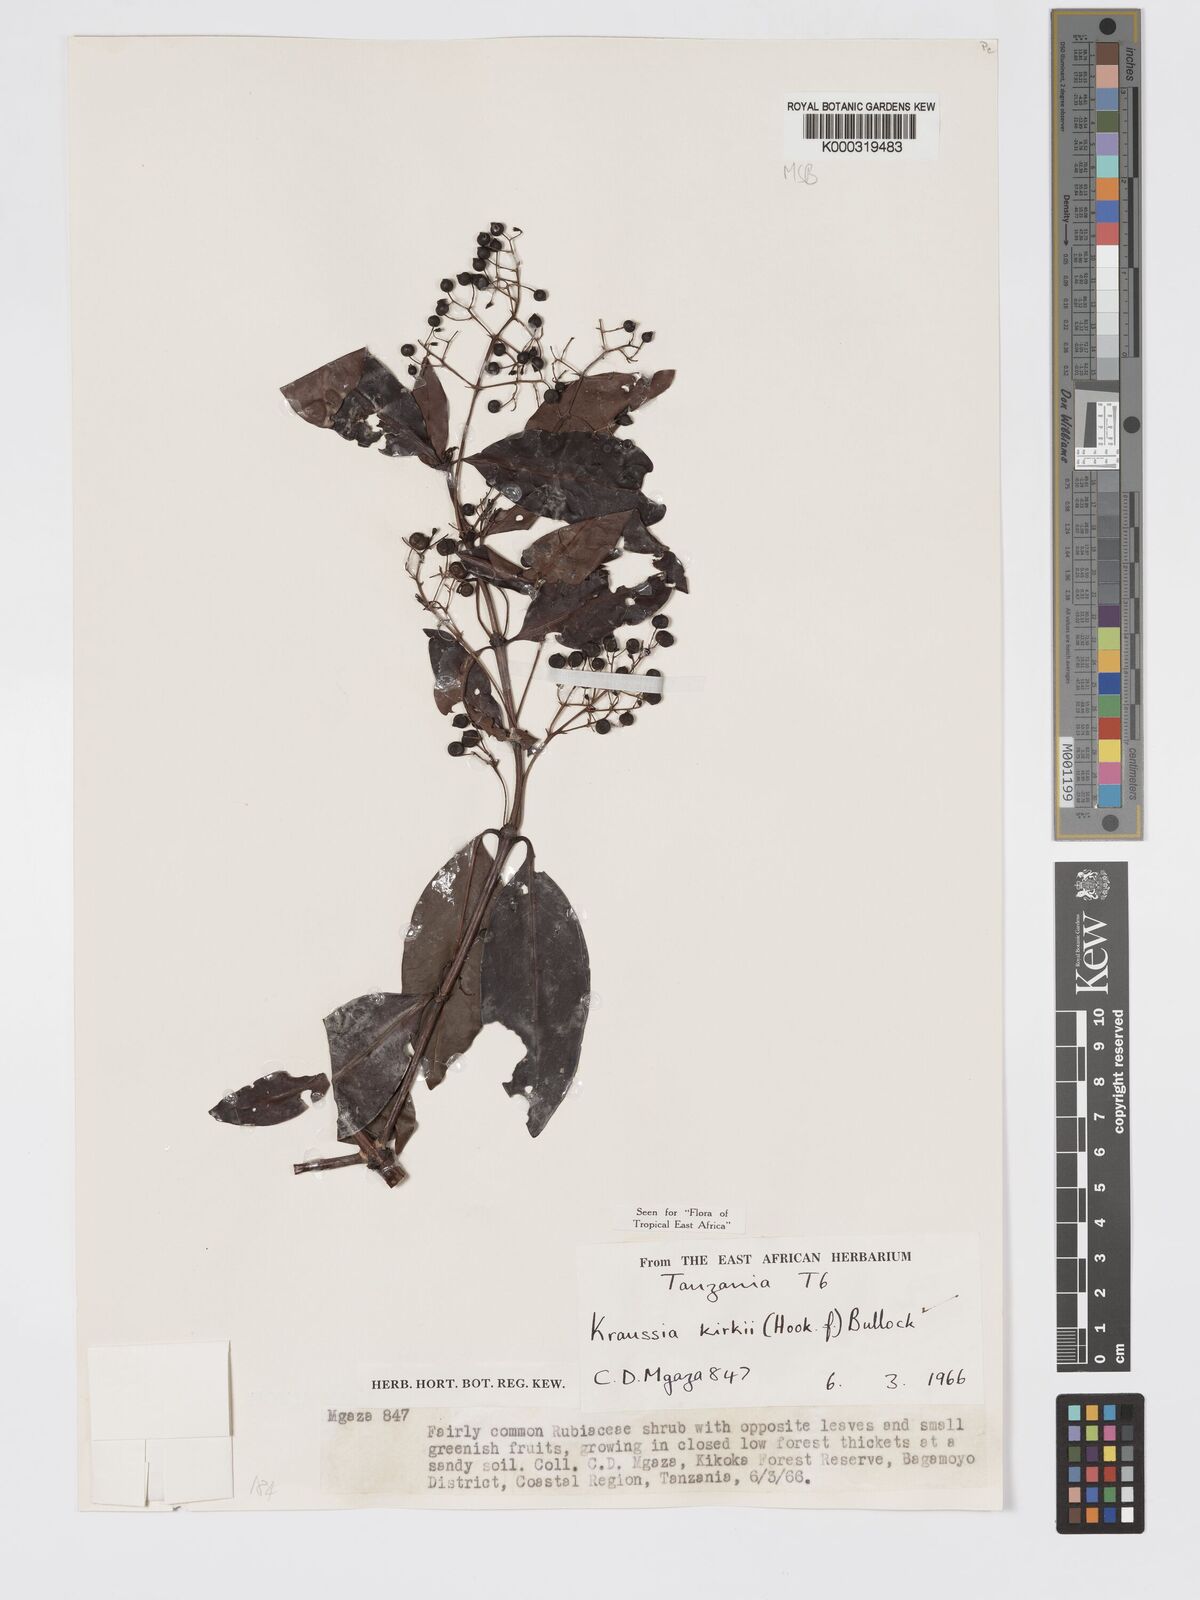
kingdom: Plantae
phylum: Tracheophyta
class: Magnoliopsida
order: Gentianales
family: Rubiaceae
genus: Kraussia
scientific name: Kraussia kirkii
